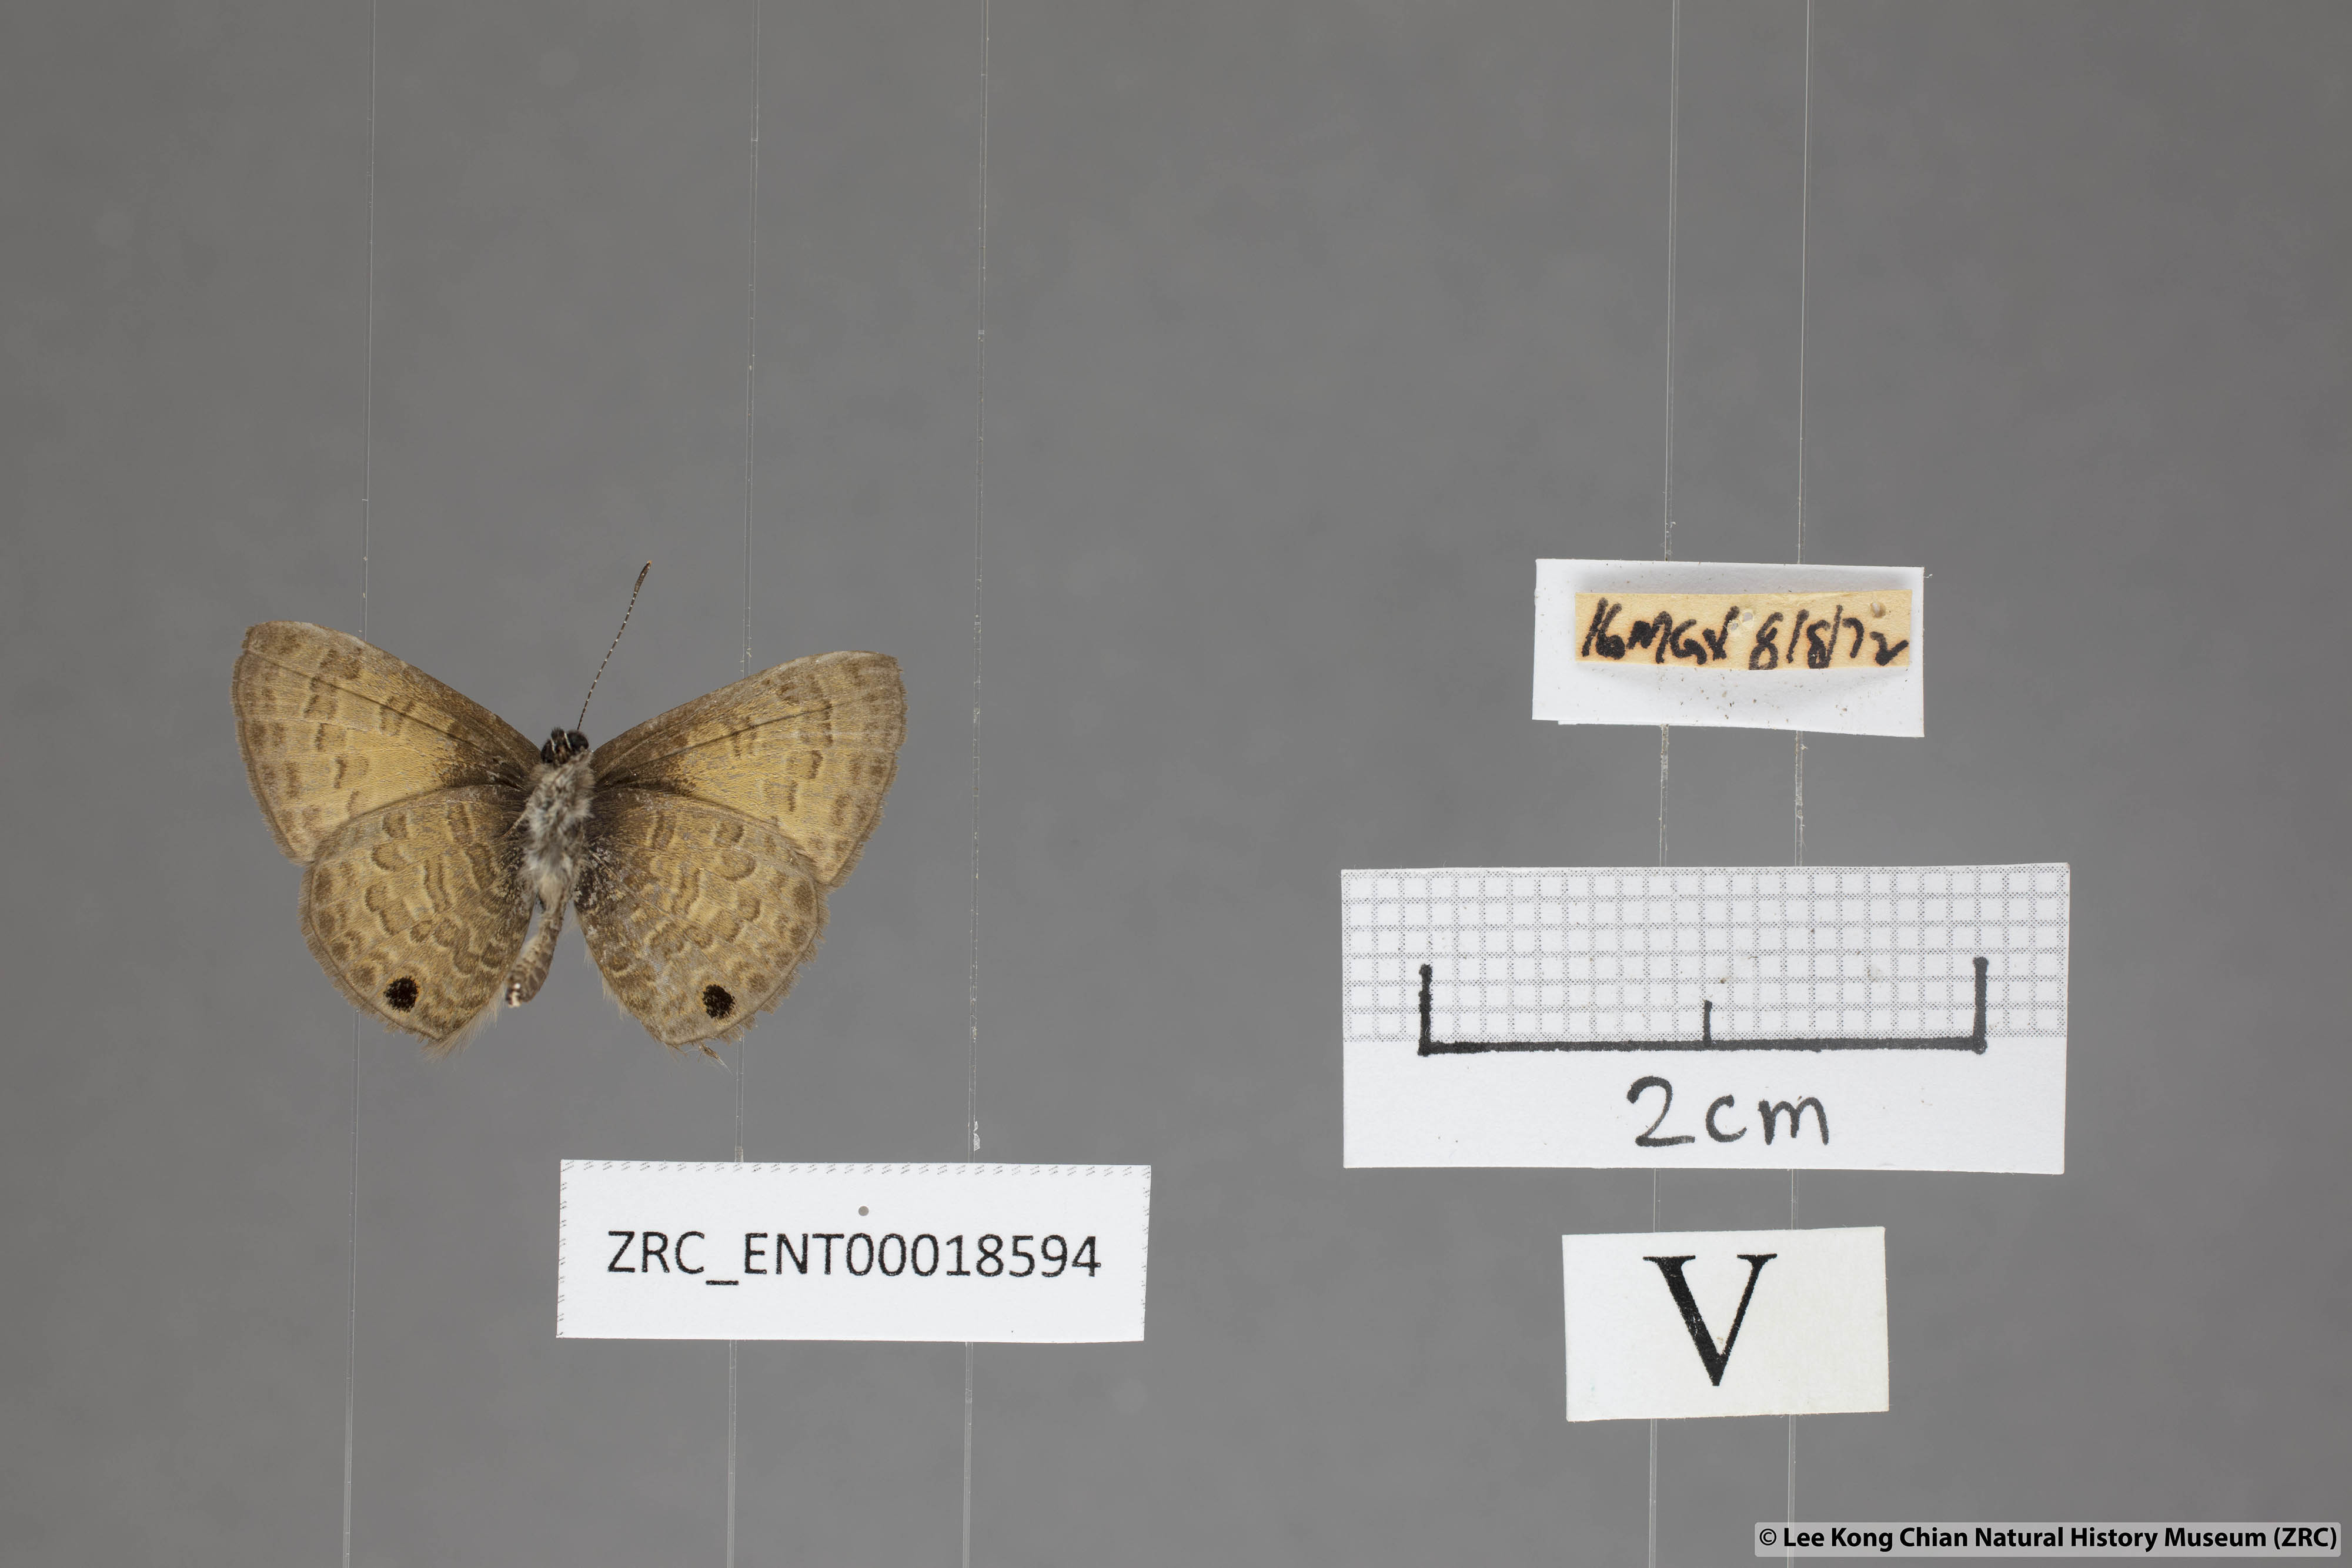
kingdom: Animalia
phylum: Arthropoda
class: Insecta
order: Lepidoptera
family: Lycaenidae
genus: Prosotas
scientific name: Prosotas gracilis
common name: Dark-based lineblue
